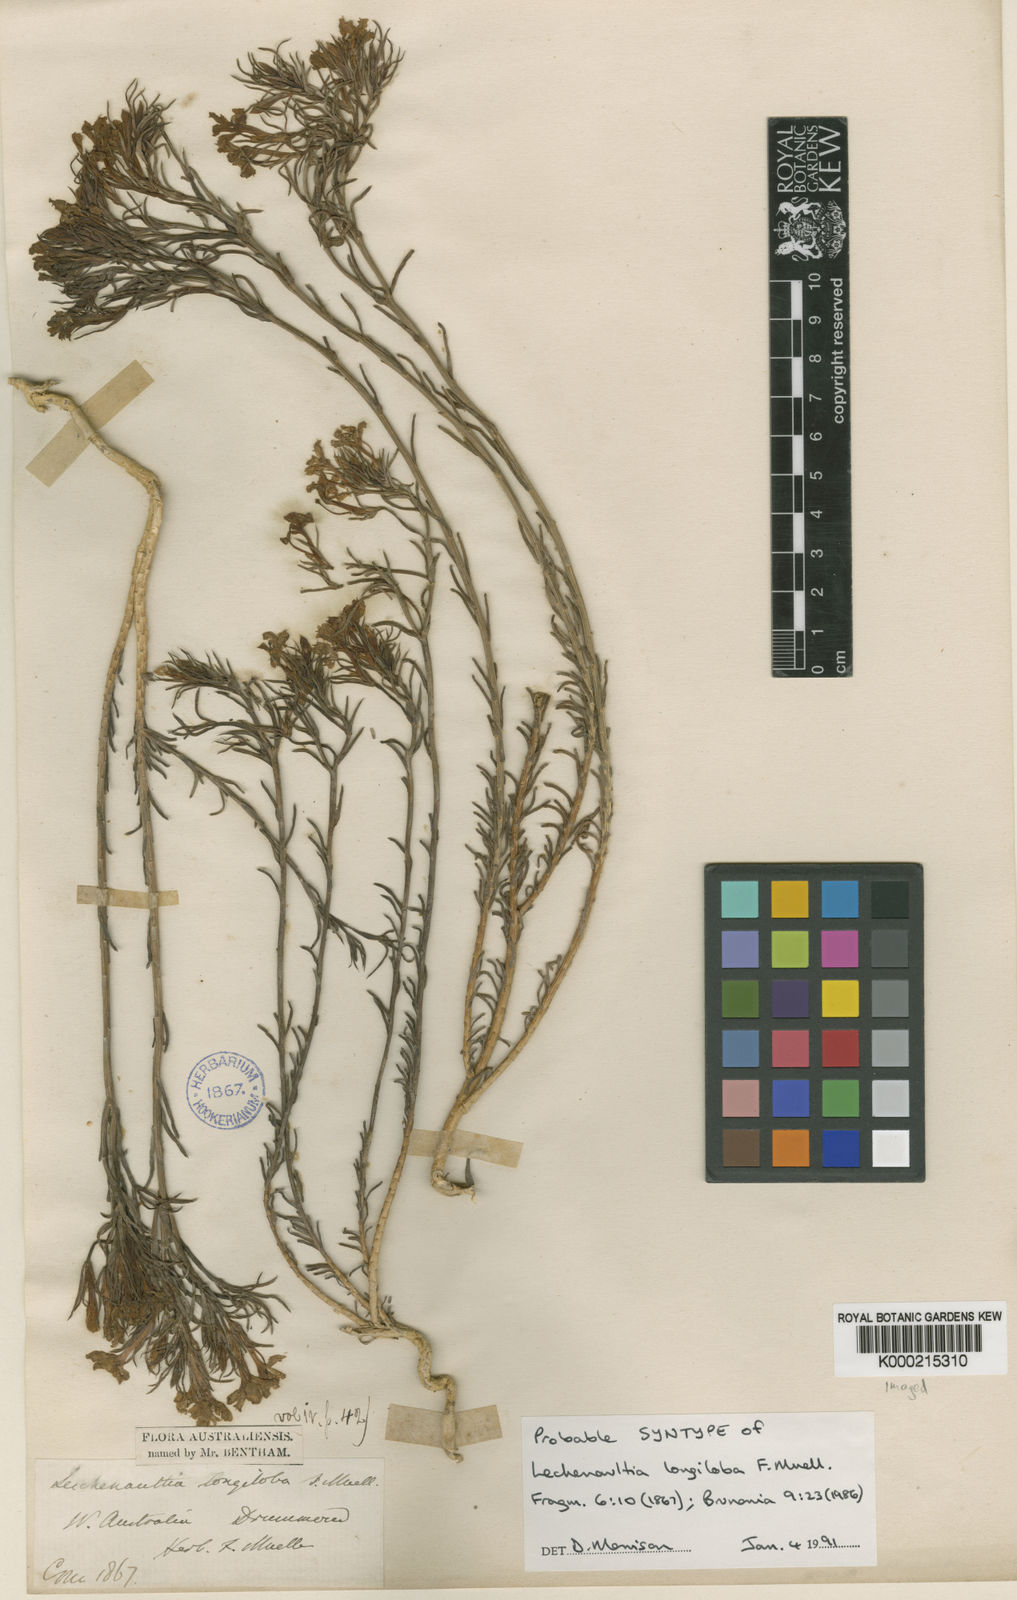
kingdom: Plantae
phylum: Tracheophyta
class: Magnoliopsida
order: Asterales
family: Goodeniaceae
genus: Leschenaultia
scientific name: Leschenaultia longiloba
